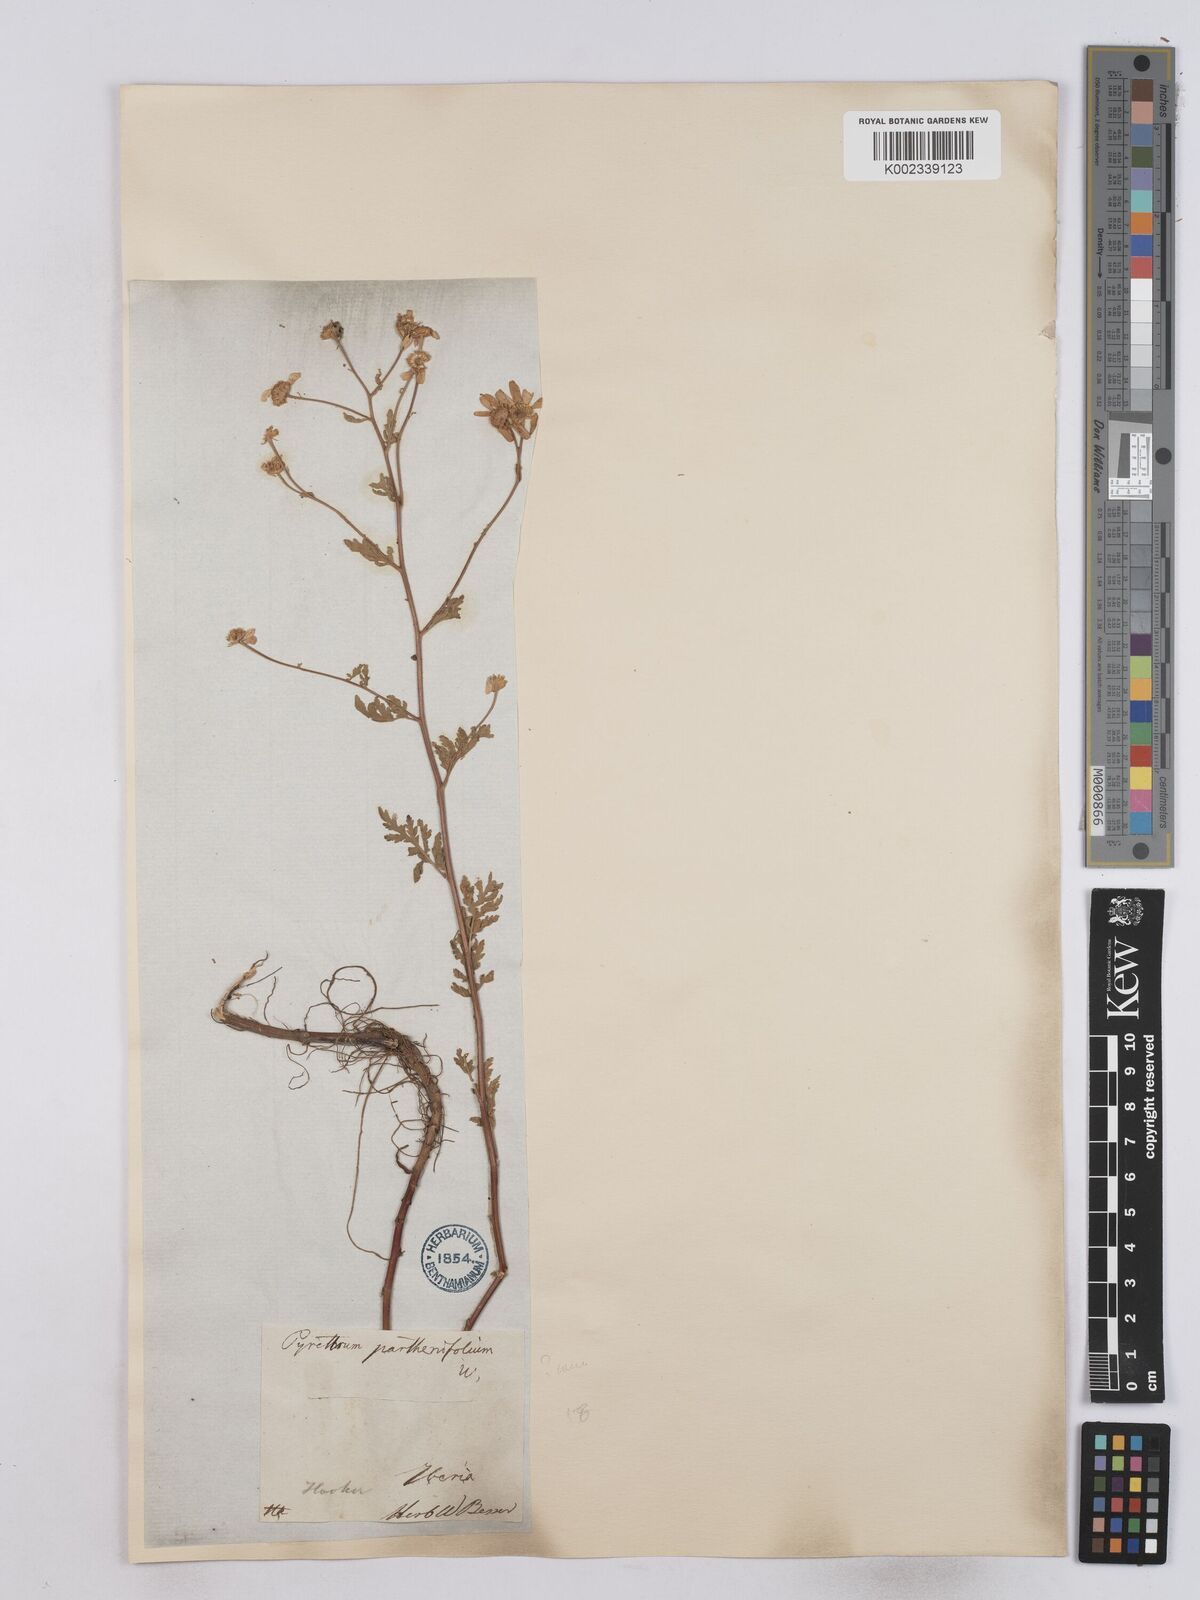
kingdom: Plantae
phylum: Tracheophyta
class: Magnoliopsida
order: Asterales
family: Asteraceae
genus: Tanacetum
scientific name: Tanacetum partheniifolium
